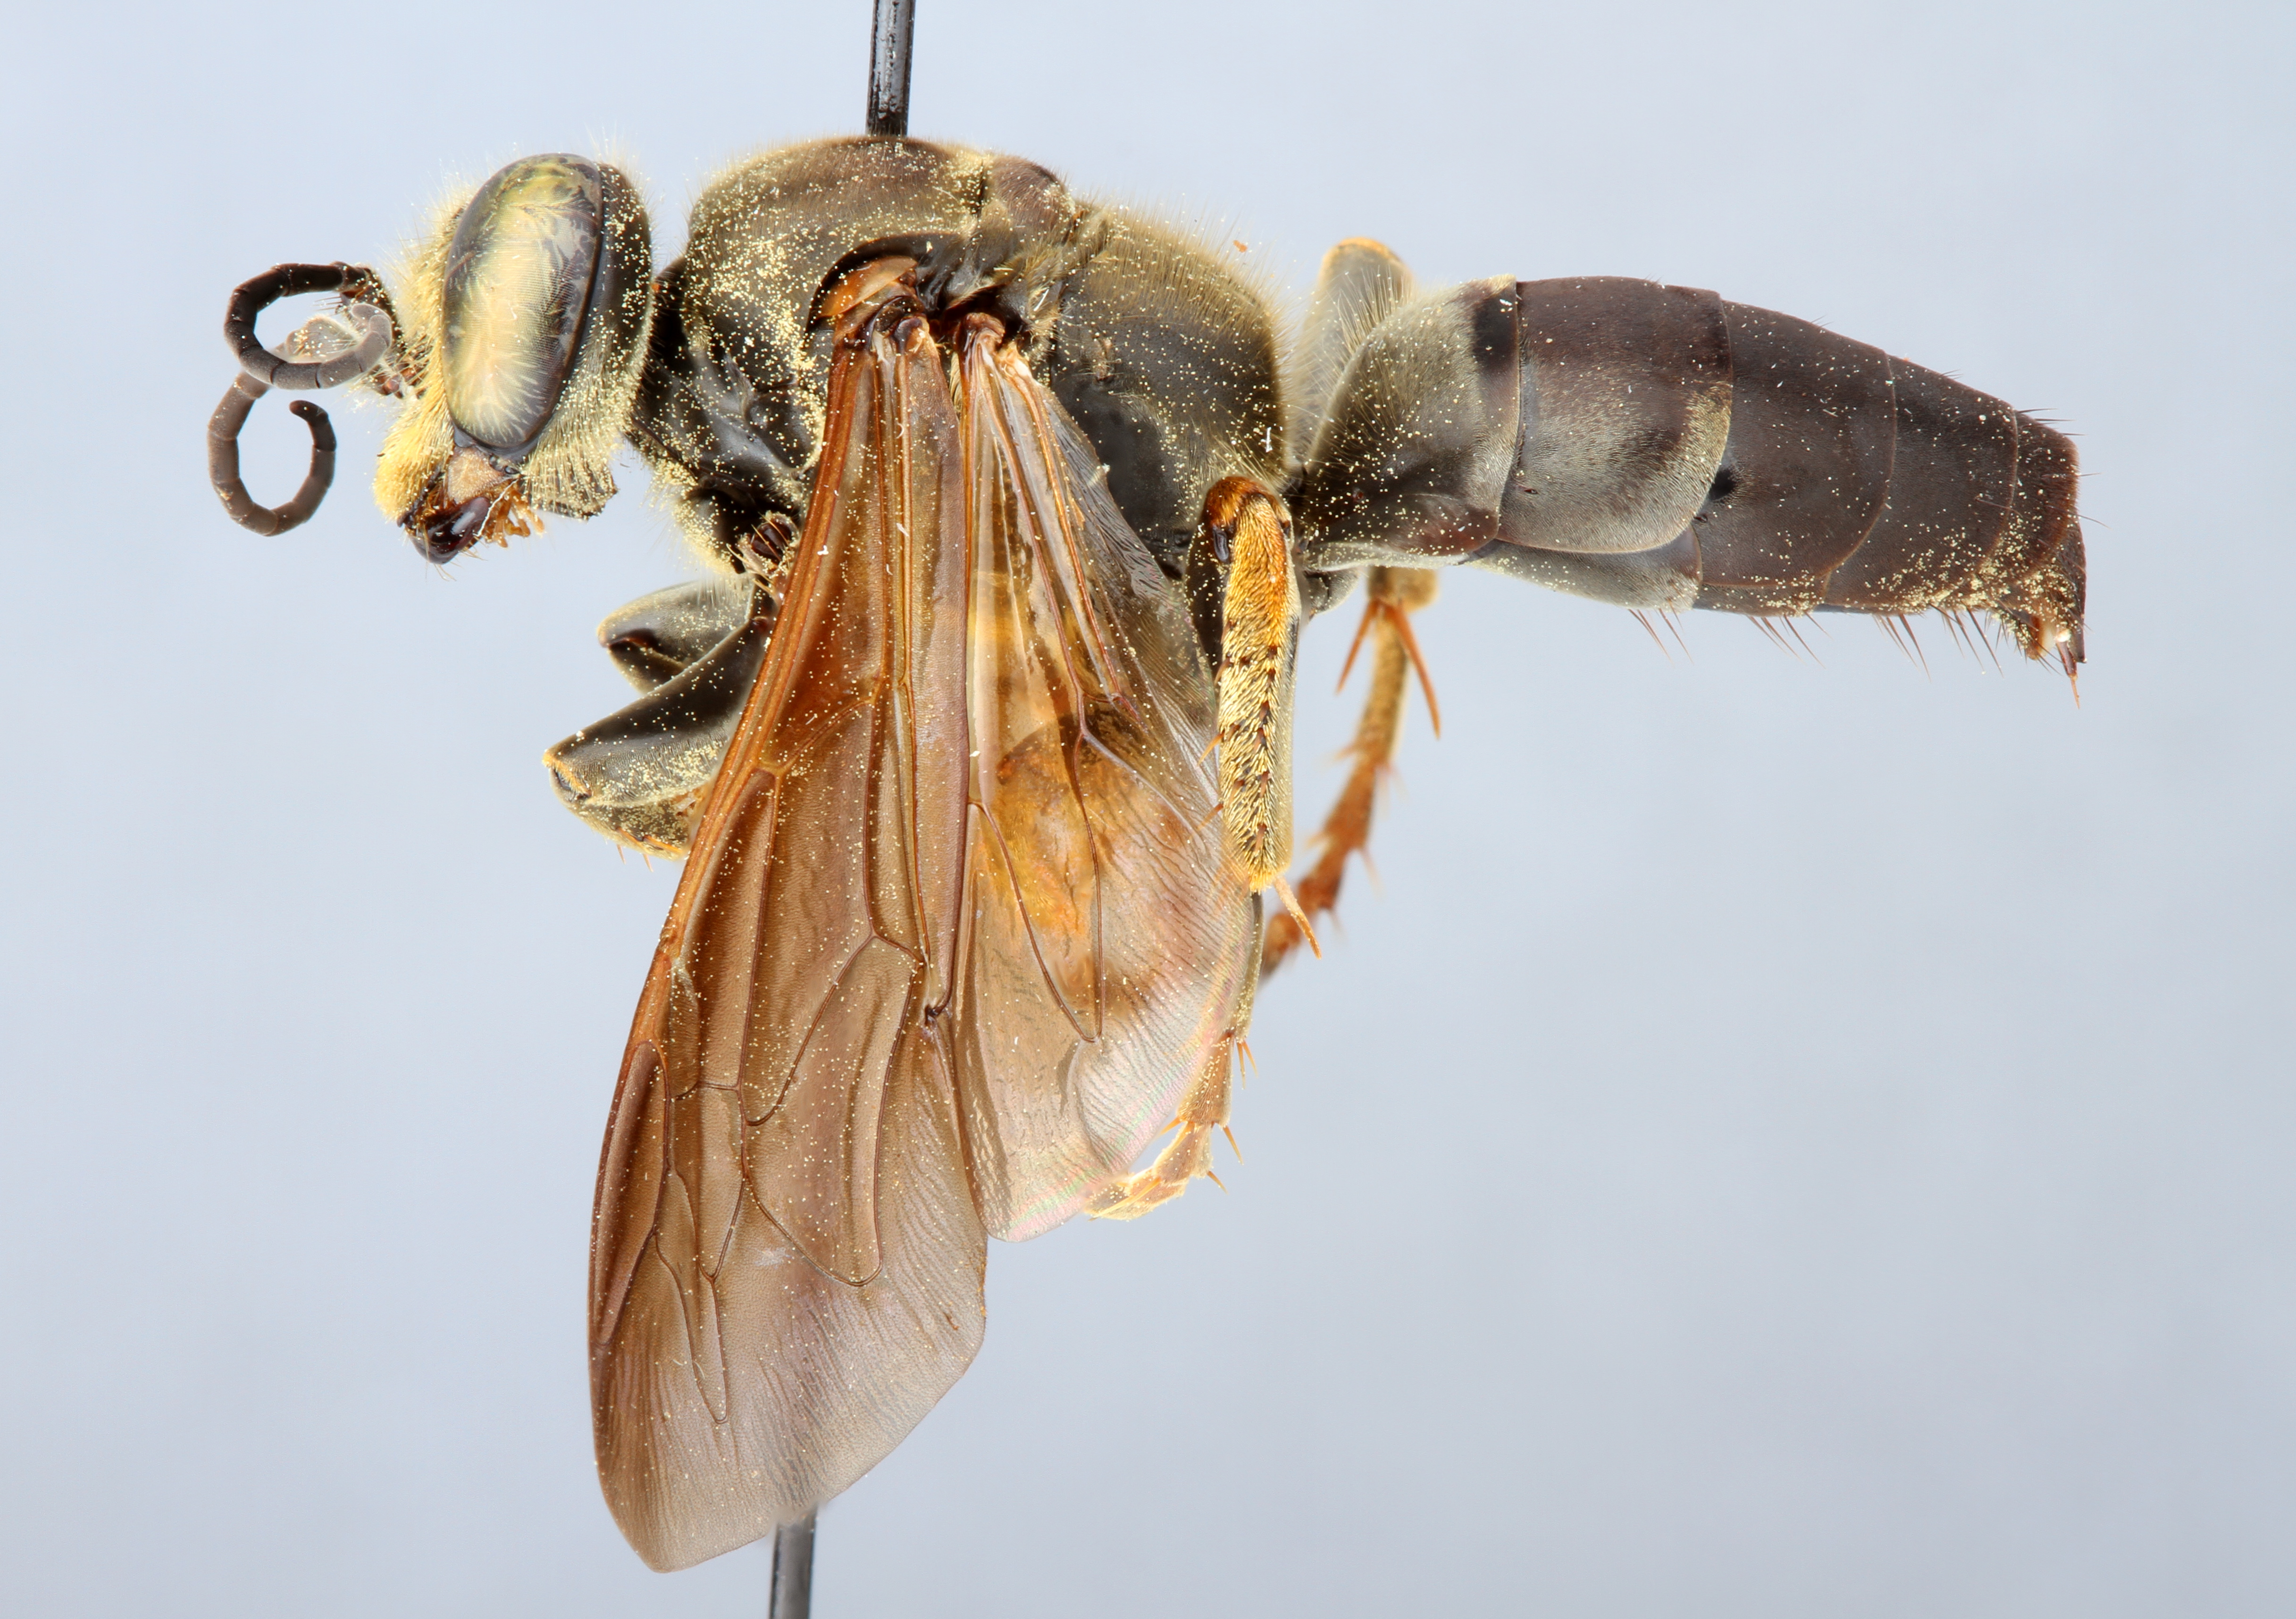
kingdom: Animalia
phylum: Arthropoda
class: Insecta
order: Hymenoptera
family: Crabronidae
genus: Tachytes
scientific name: Tachytes guatemalensis
